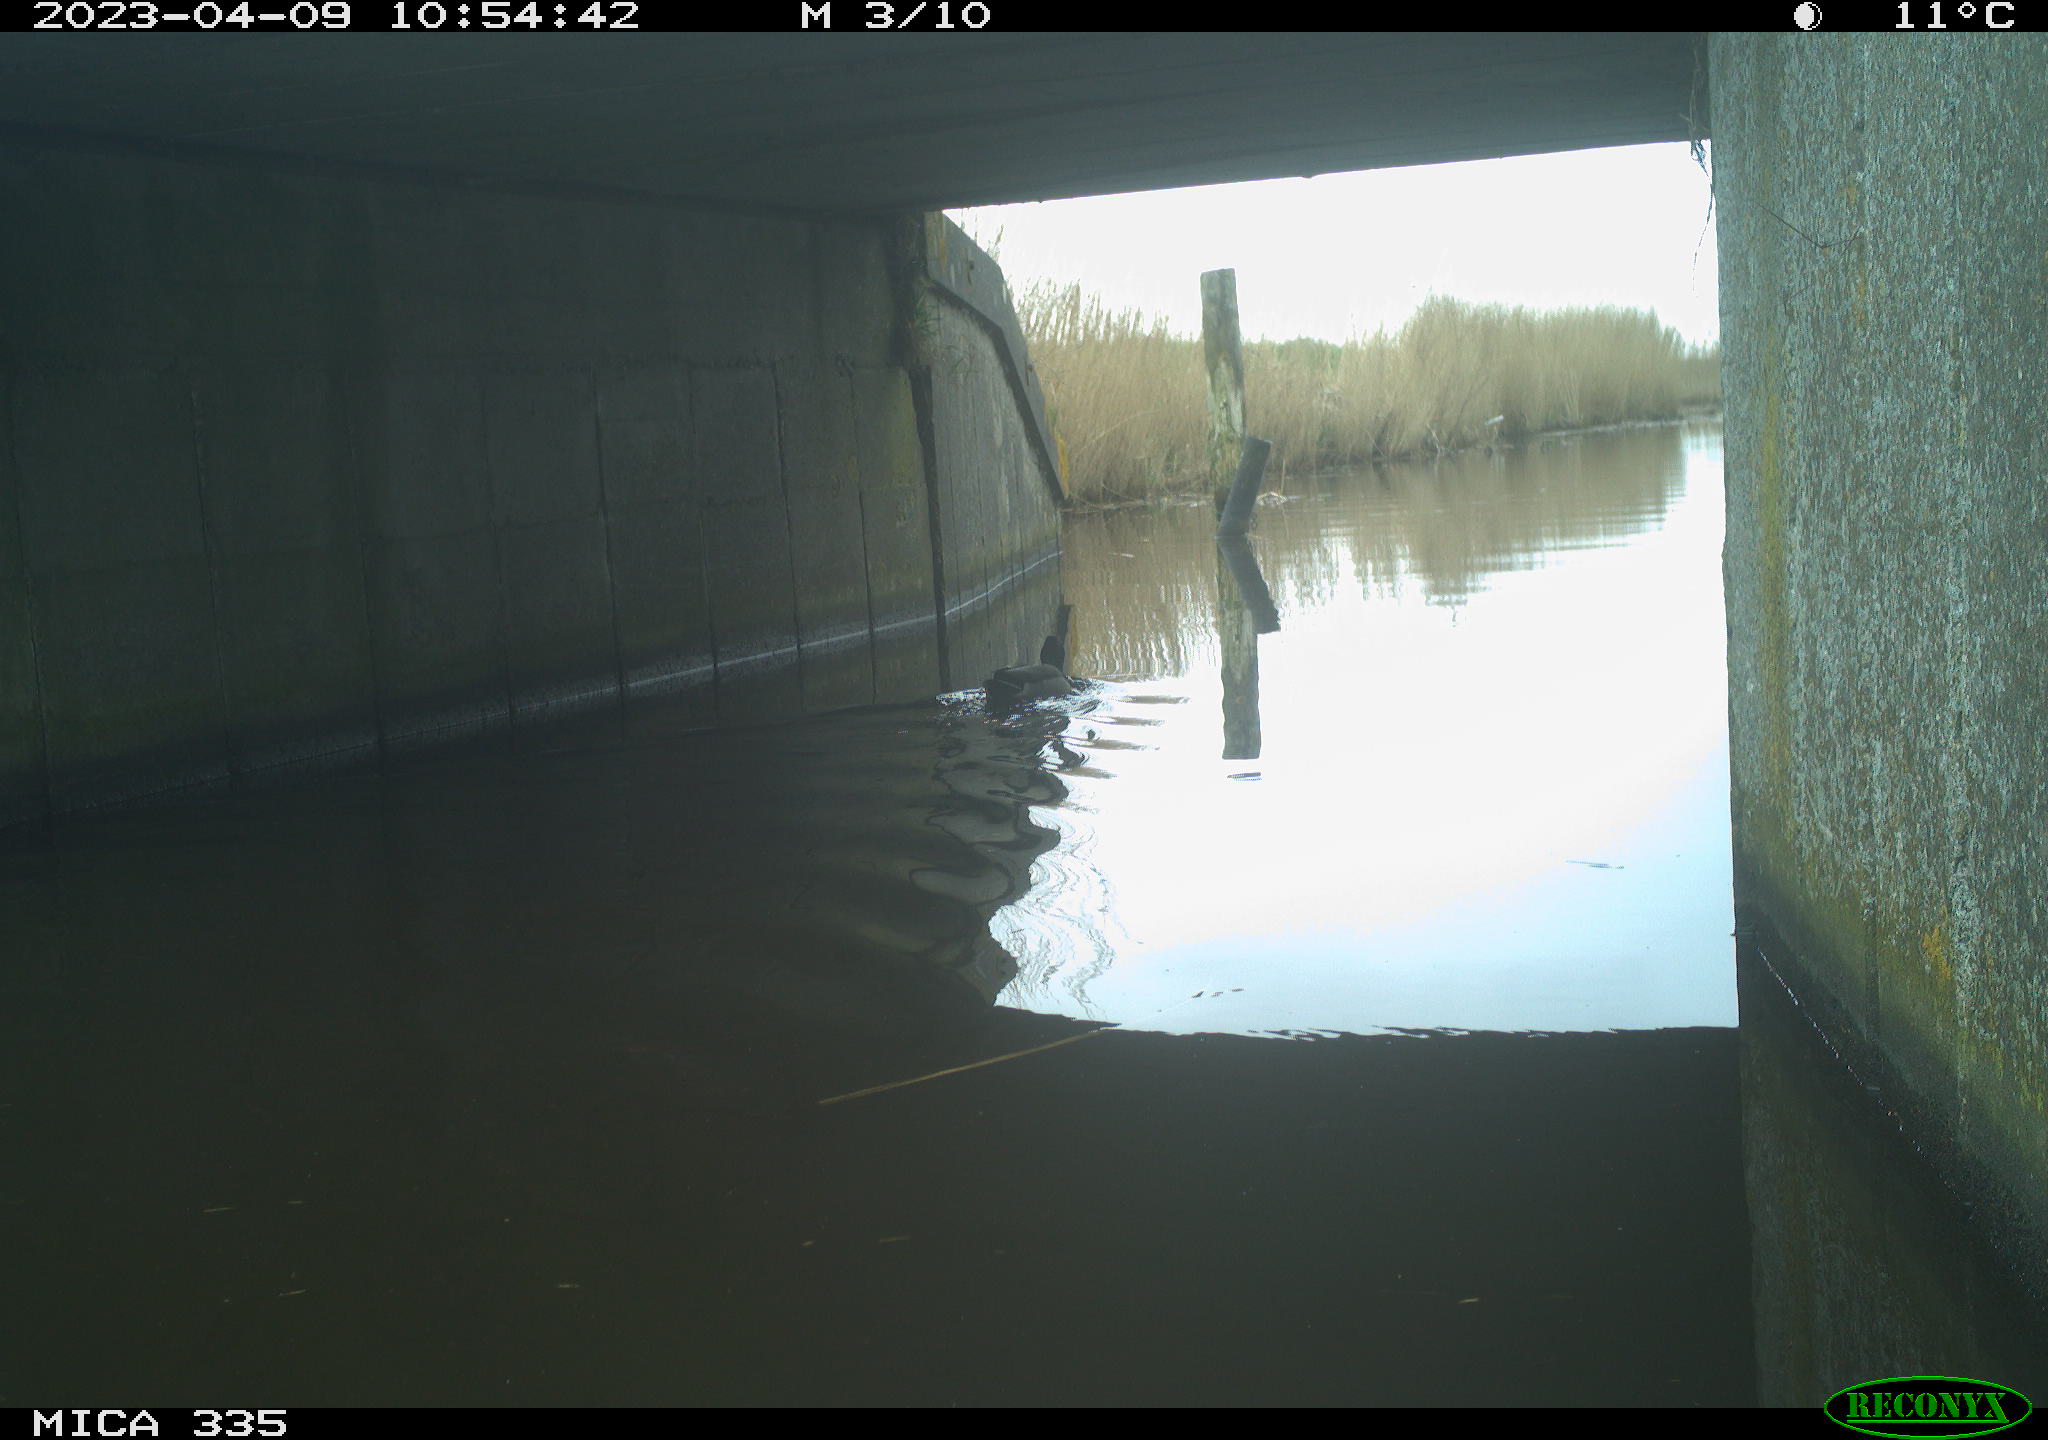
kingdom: Animalia
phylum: Chordata
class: Aves
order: Anseriformes
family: Anatidae
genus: Anas
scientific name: Anas
